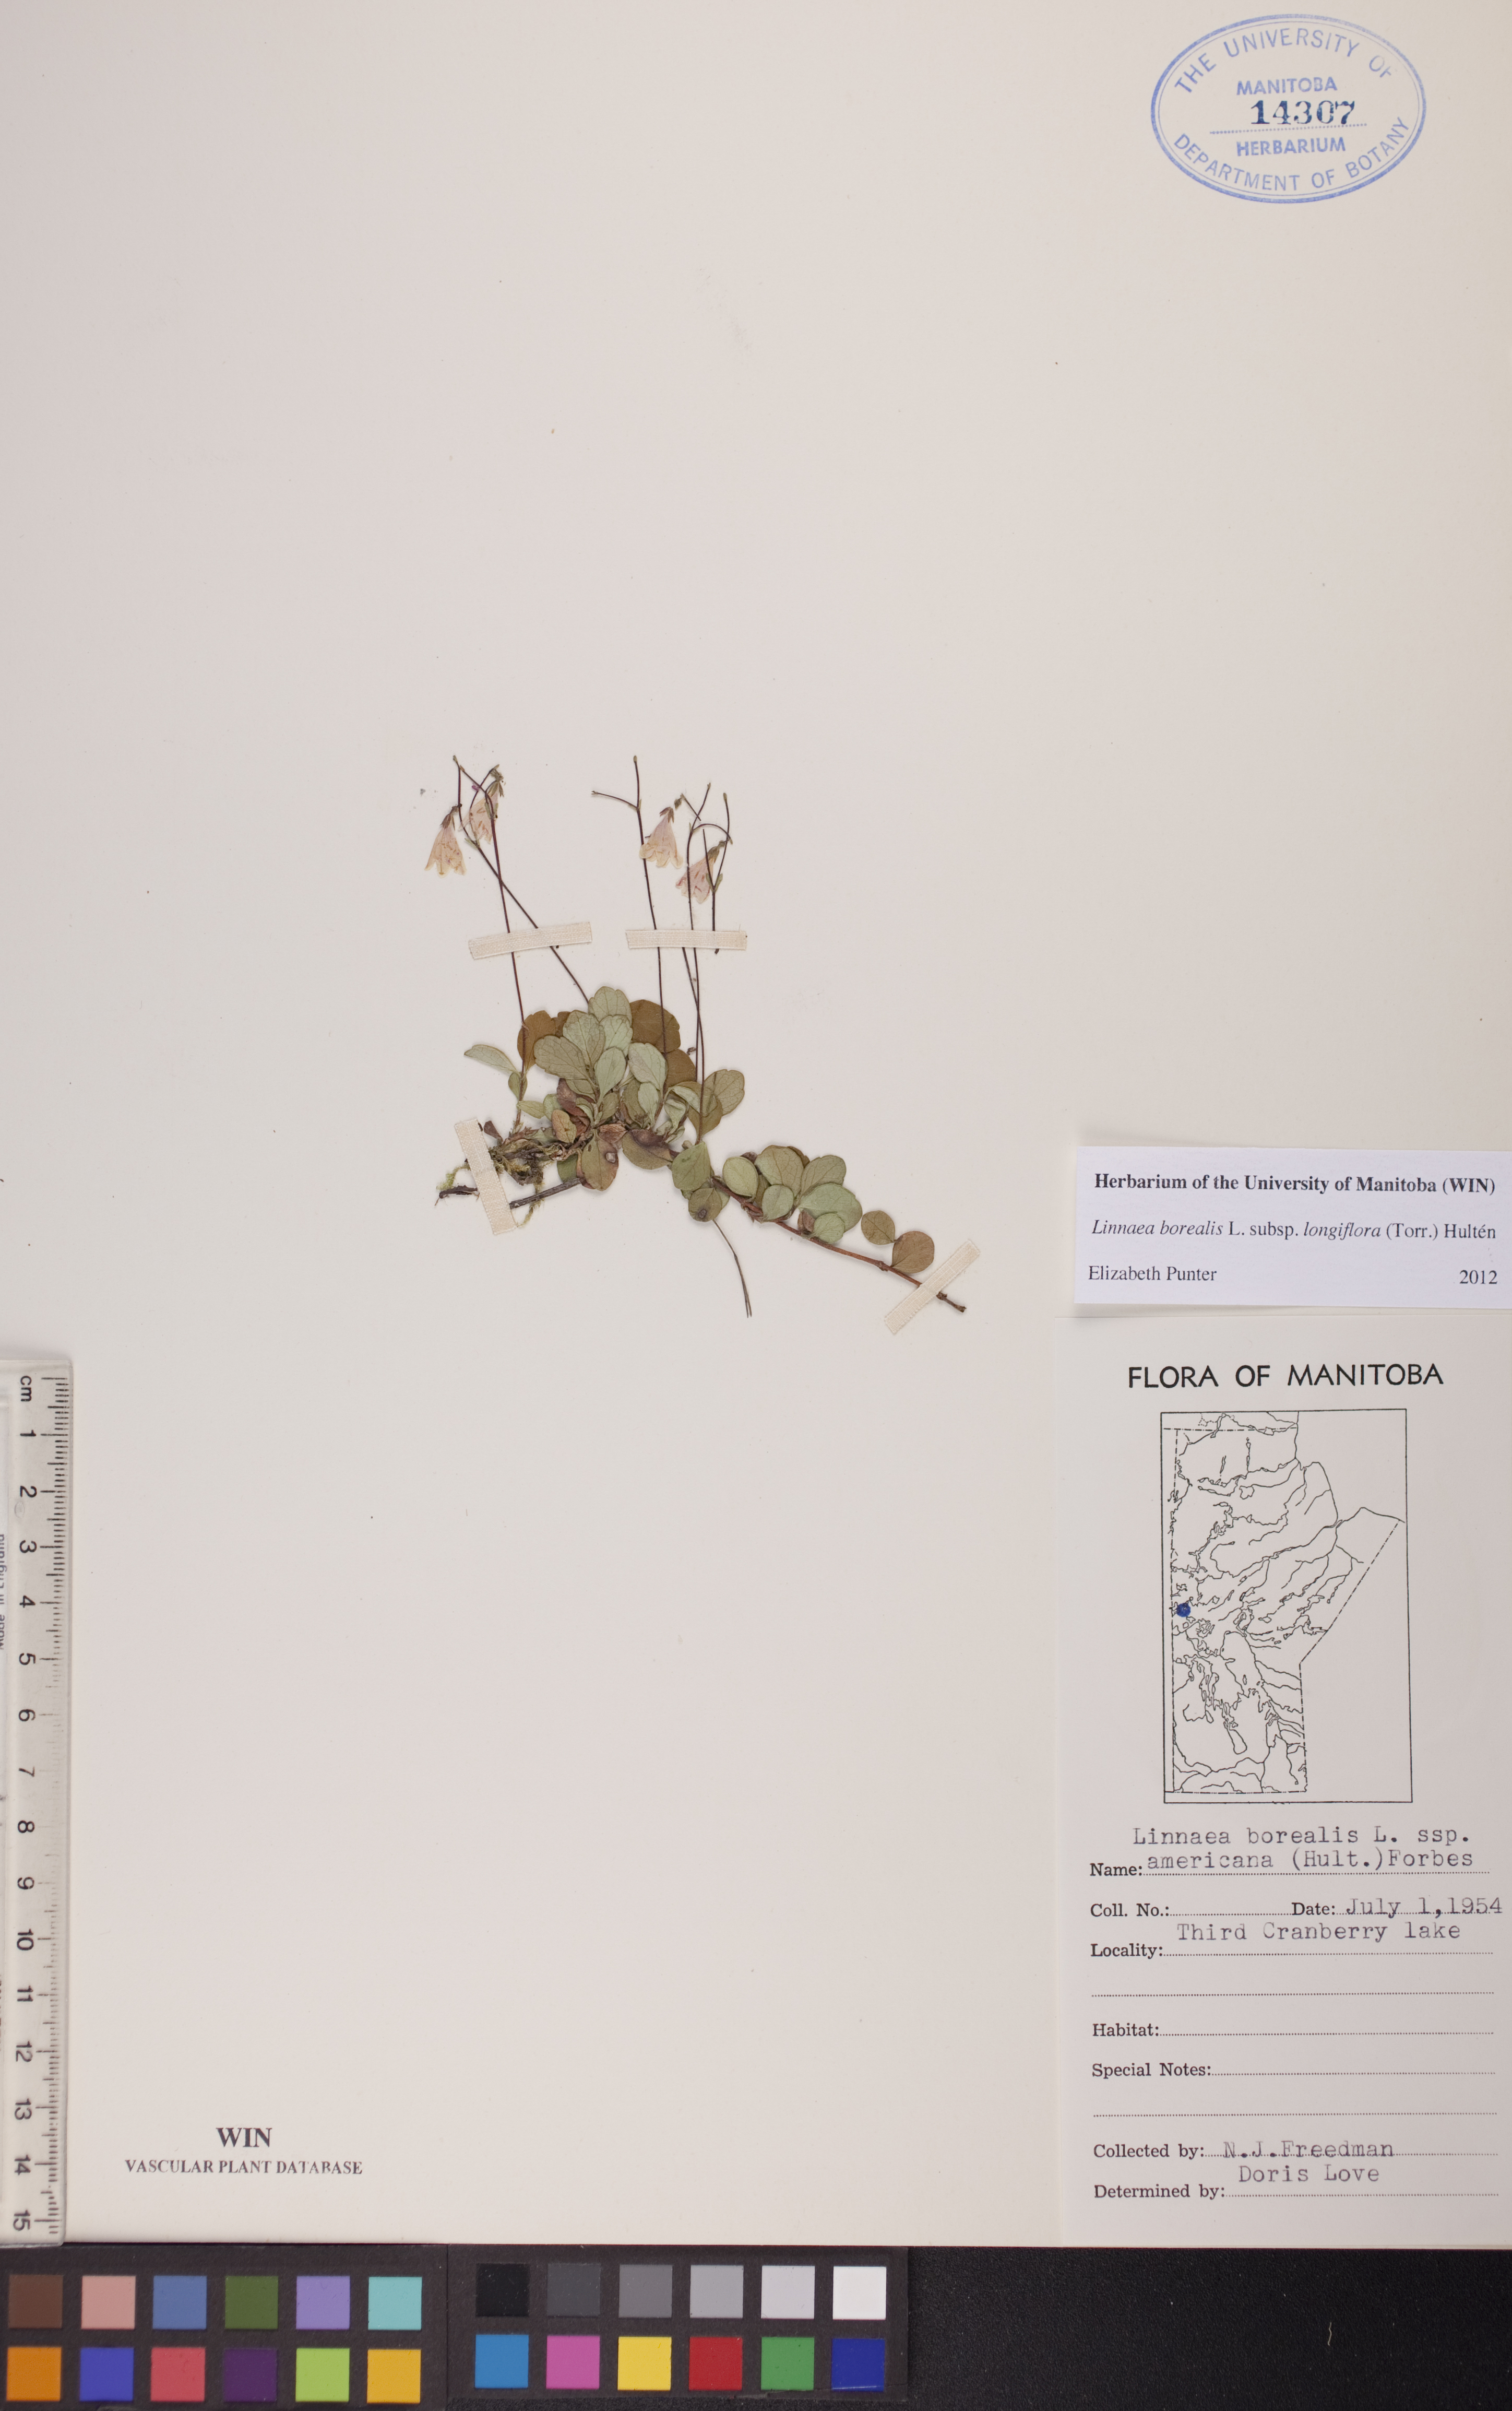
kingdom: Plantae
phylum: Tracheophyta
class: Magnoliopsida
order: Dipsacales
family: Caprifoliaceae
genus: Linnaea
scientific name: Linnaea borealis
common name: Twinflower
